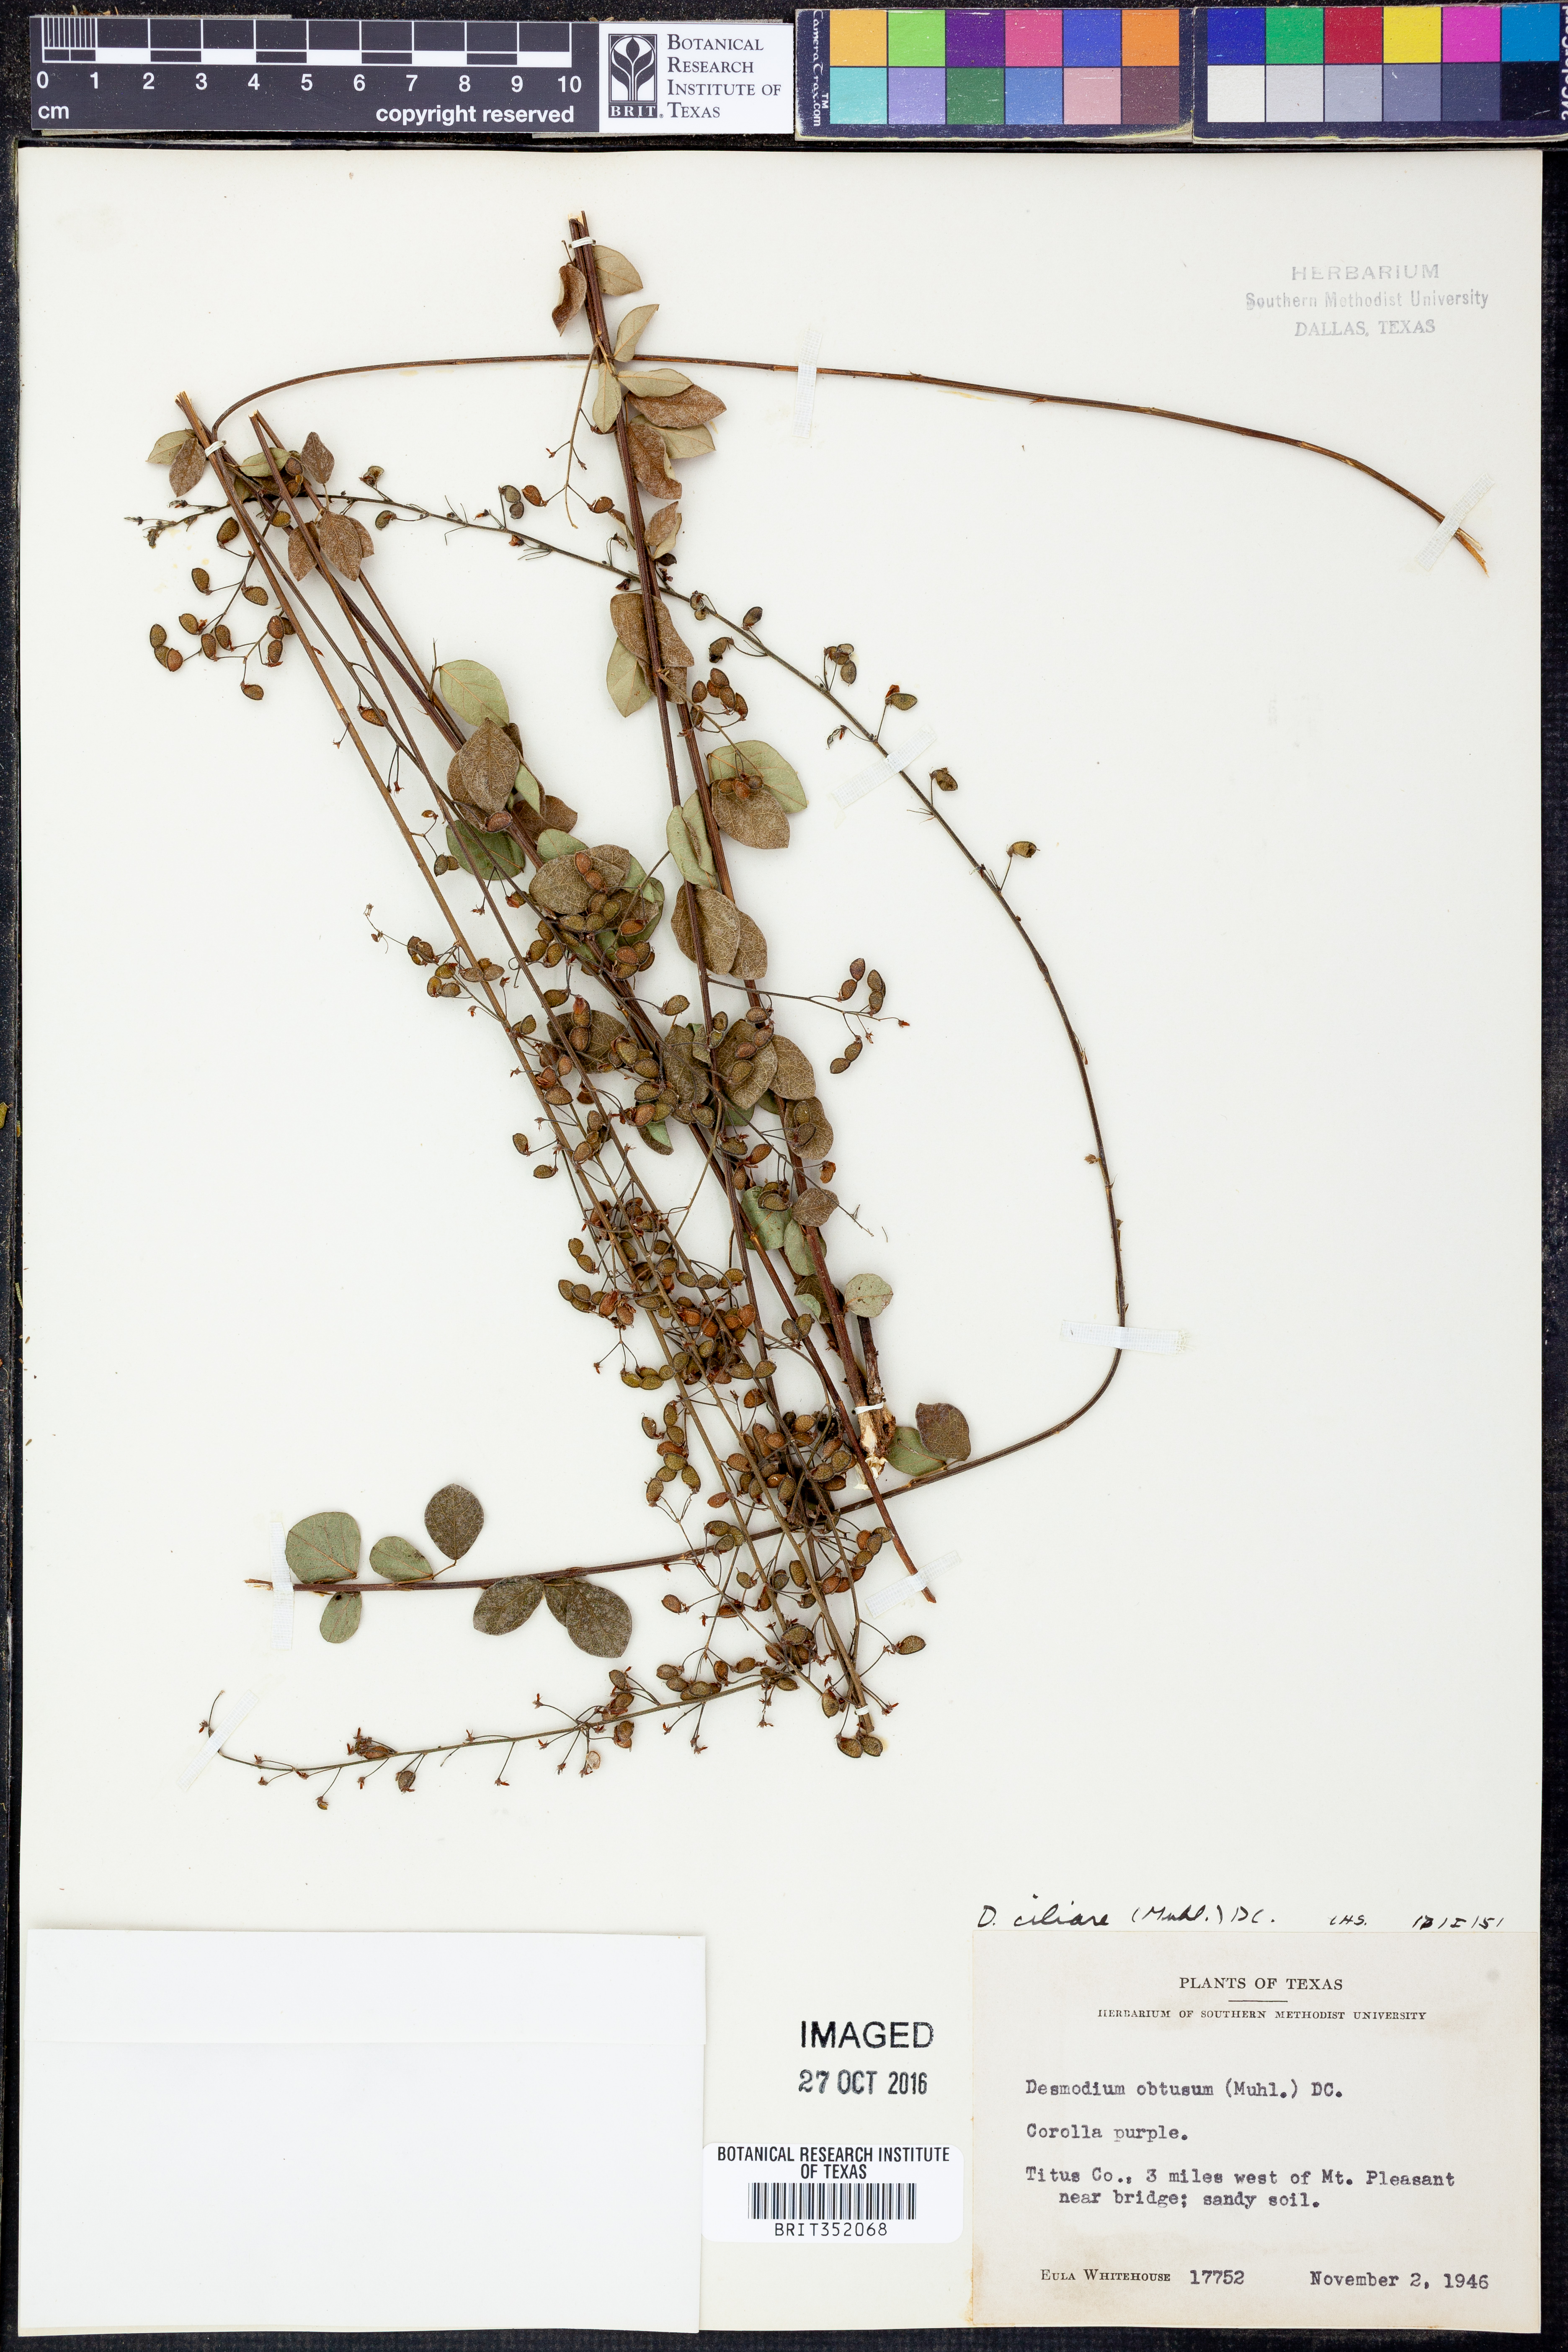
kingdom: Plantae
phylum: Tracheophyta
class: Magnoliopsida
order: Fabales
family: Fabaceae
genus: Desmodium
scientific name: Desmodium ciliare
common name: Hairy small-leaf ticktrefoil
